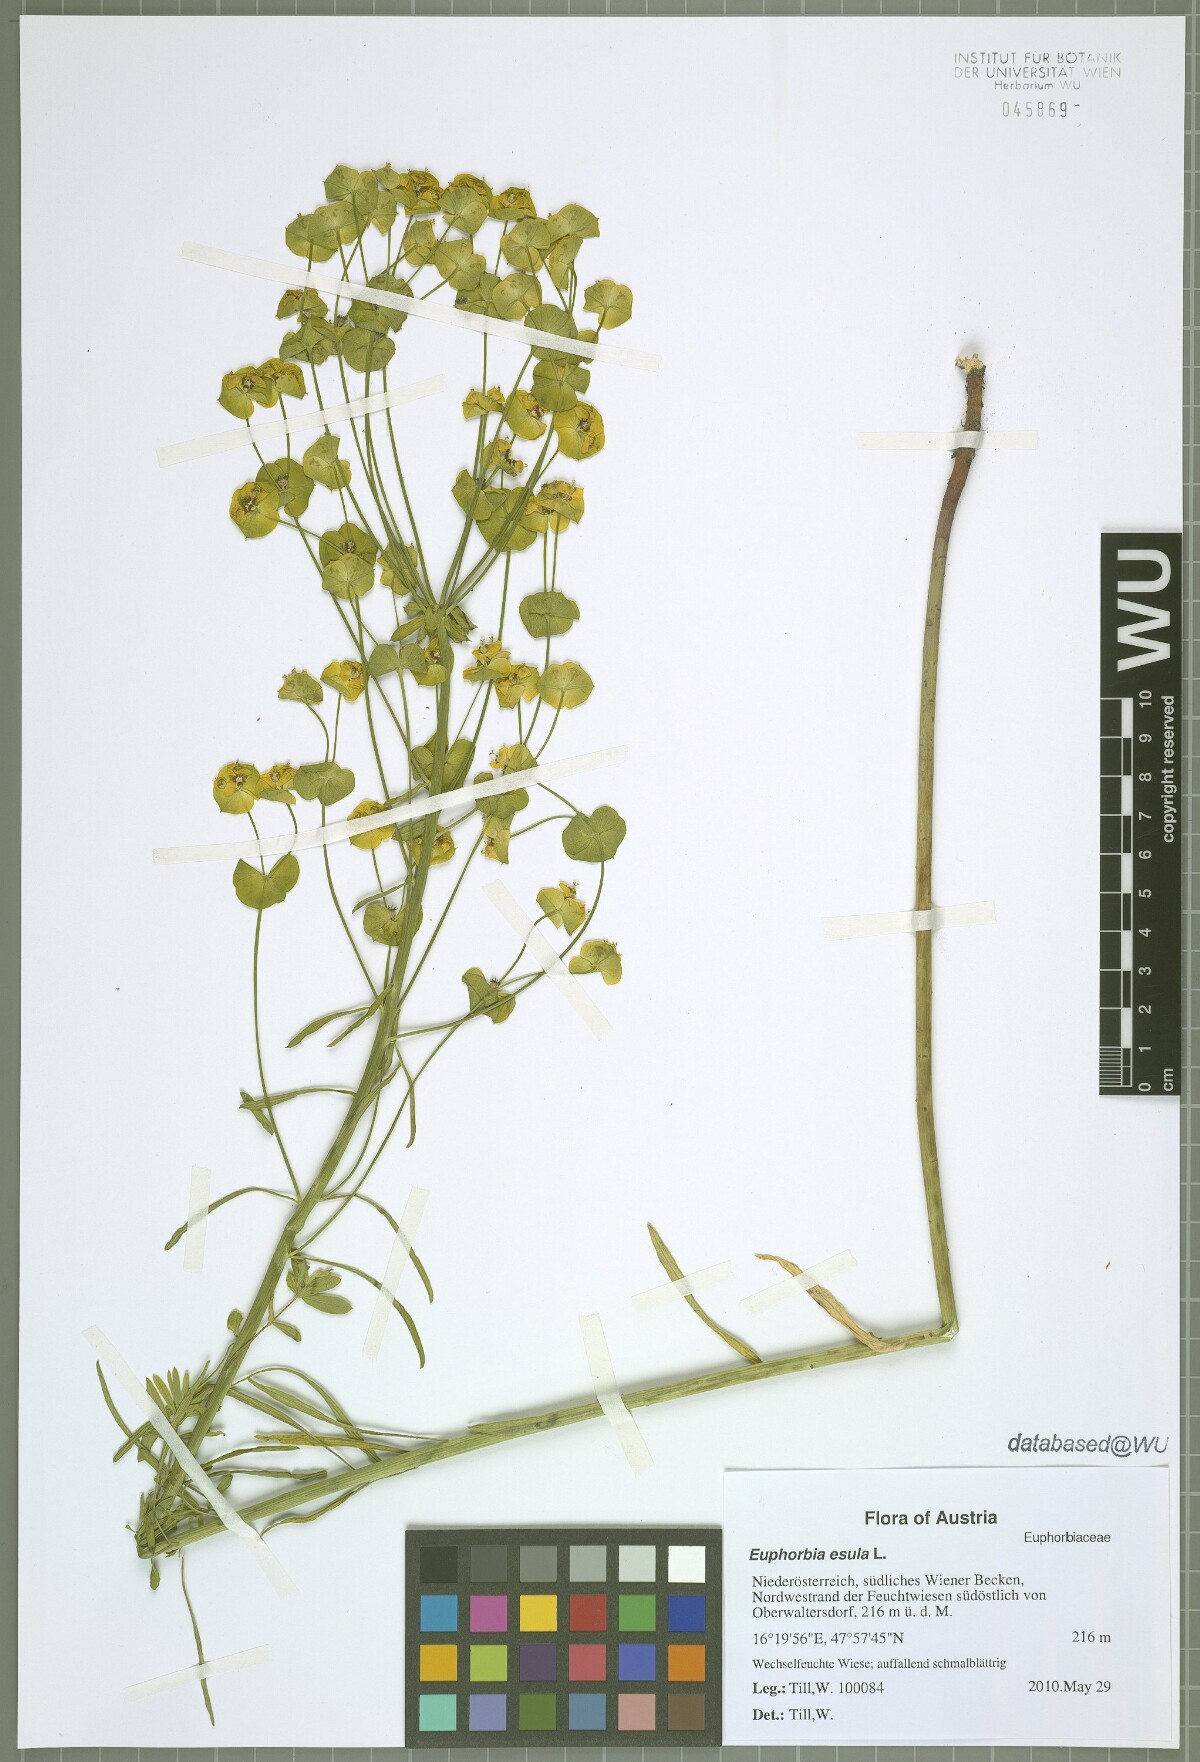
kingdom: Plantae
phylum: Tracheophyta
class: Magnoliopsida
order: Malpighiales
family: Euphorbiaceae
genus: Euphorbia
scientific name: Euphorbia esula
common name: Leafy spurge
